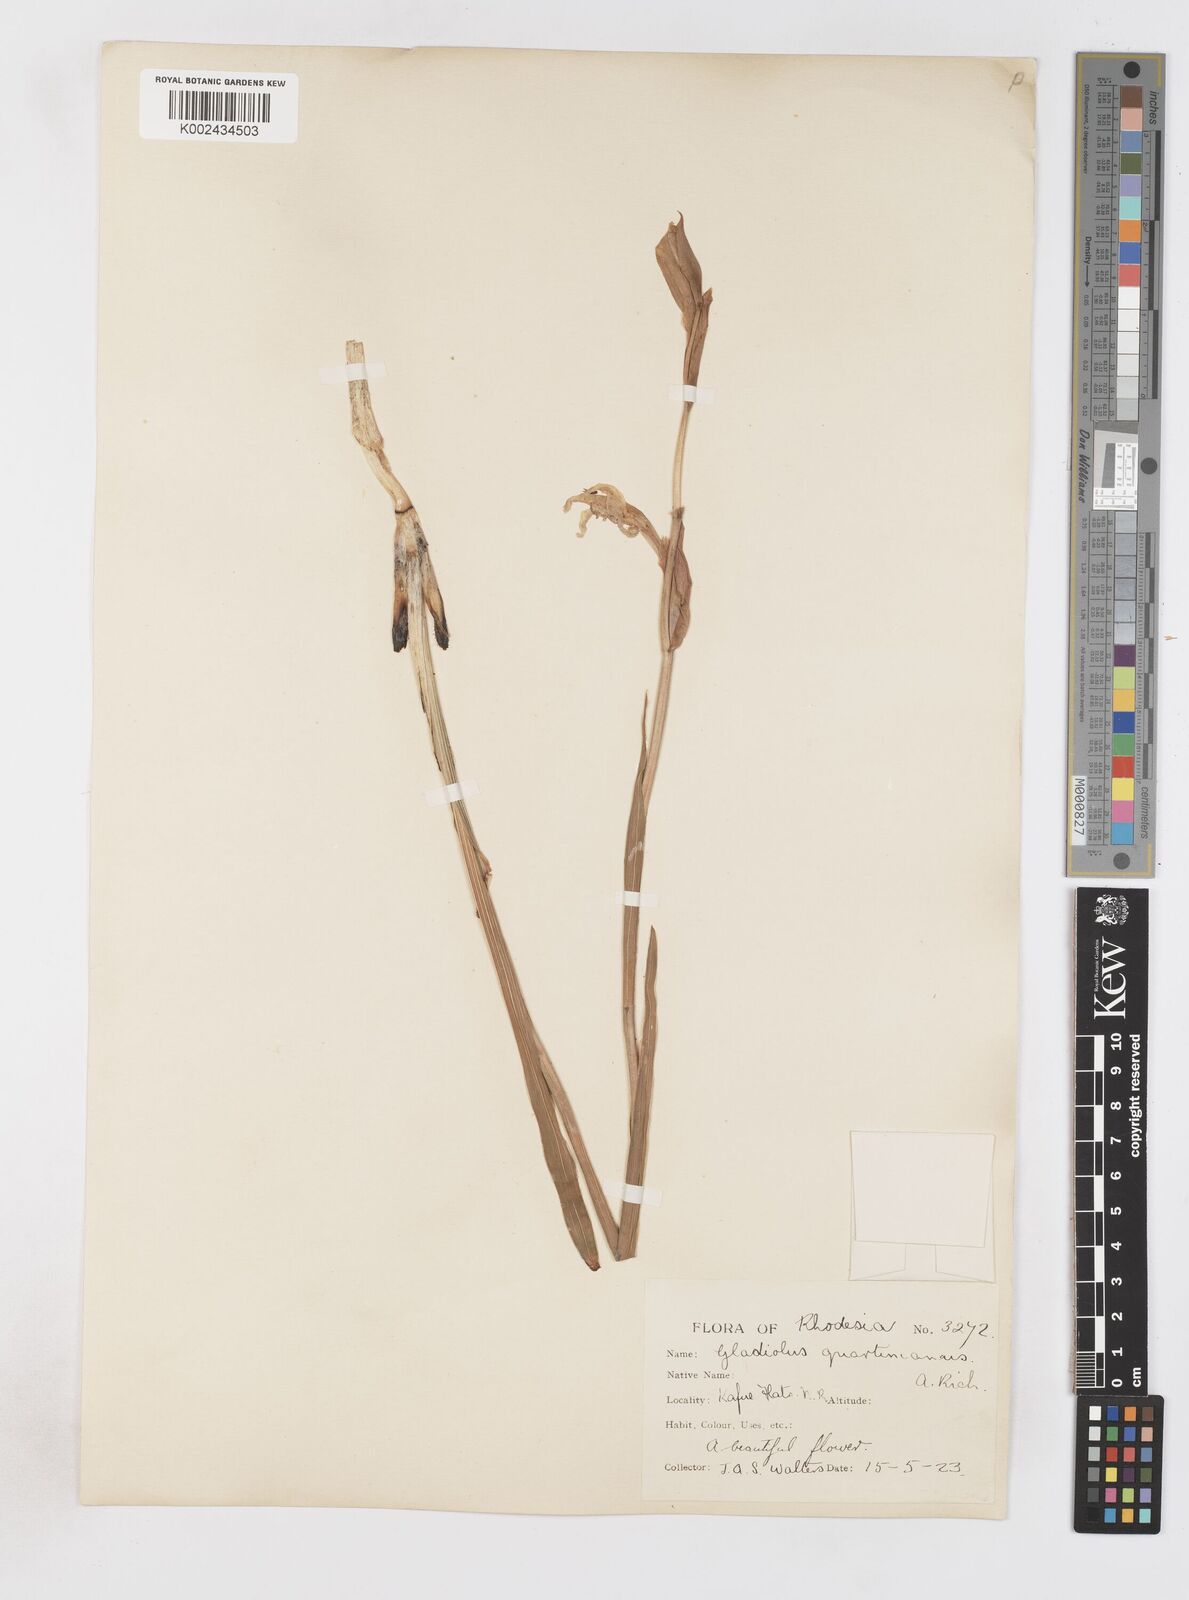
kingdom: Plantae
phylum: Tracheophyta
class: Liliopsida
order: Asparagales
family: Iridaceae
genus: Gladiolus
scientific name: Gladiolus dalenii
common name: Cornflag
